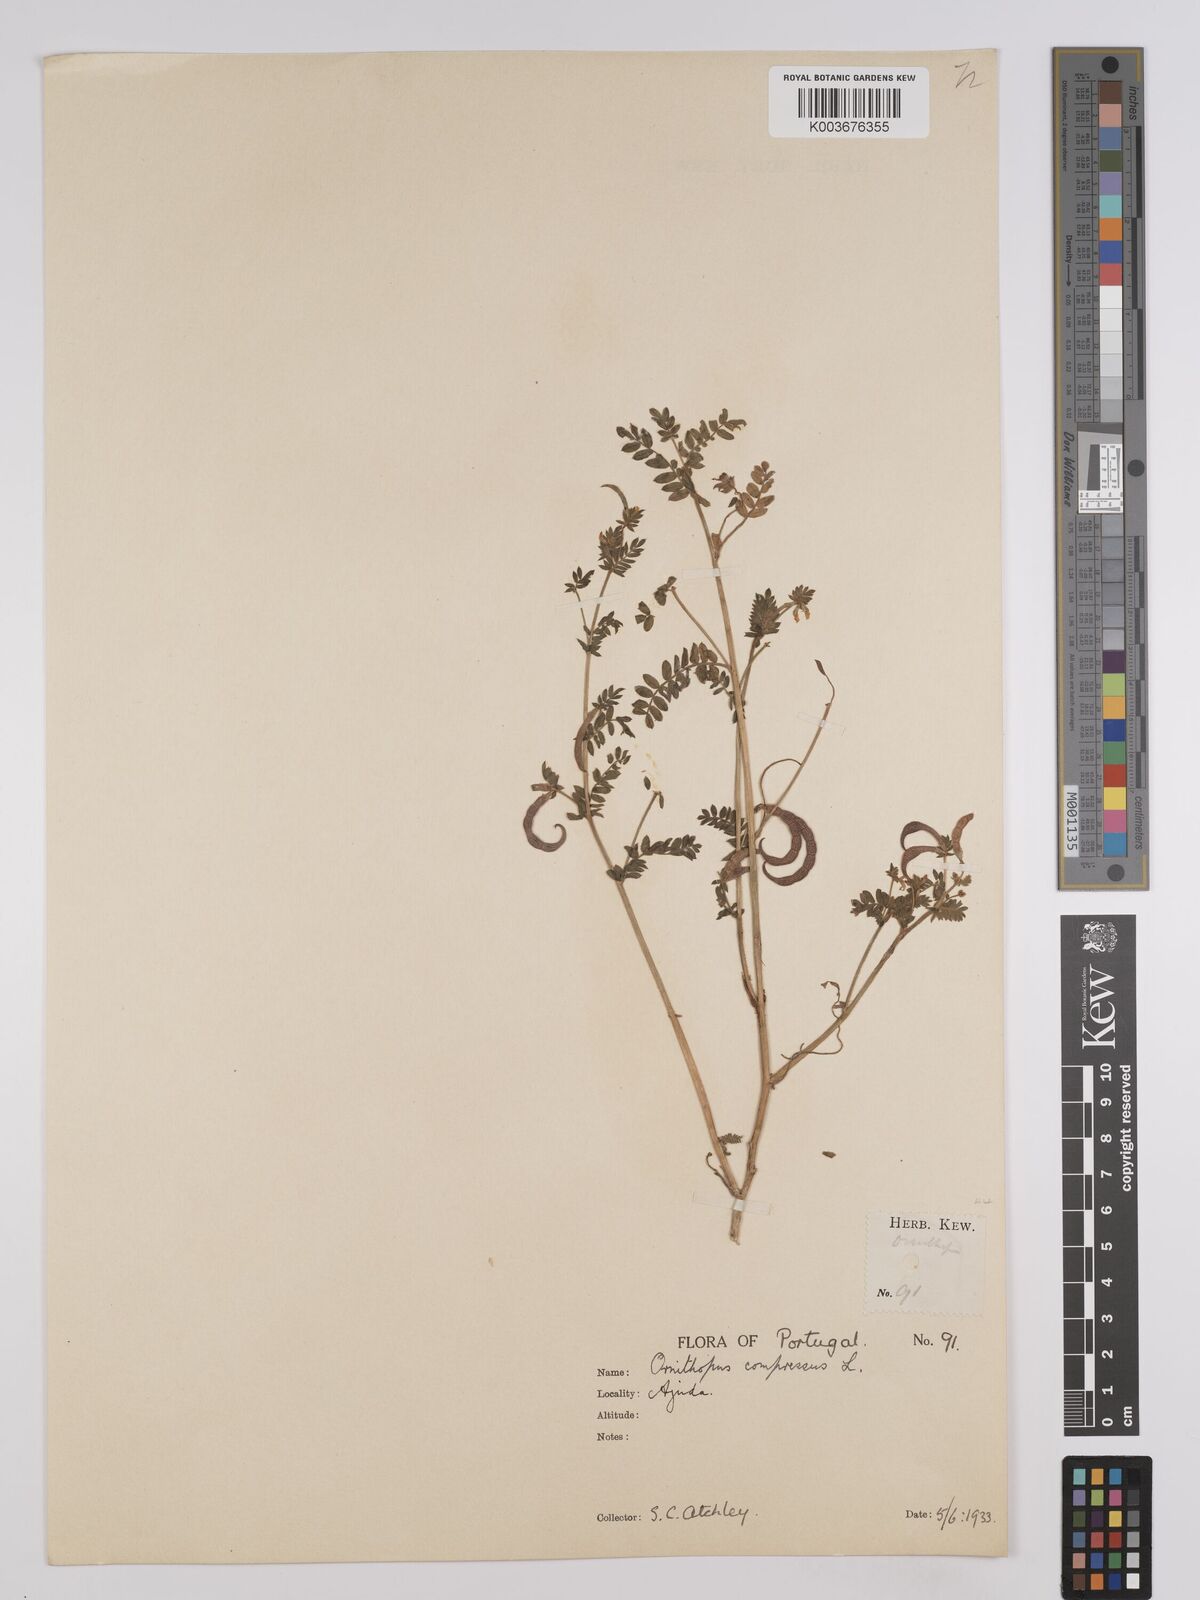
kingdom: Plantae
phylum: Tracheophyta
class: Magnoliopsida
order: Fabales
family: Fabaceae
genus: Ornithopus
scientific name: Ornithopus compressus
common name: Yellow serradella
